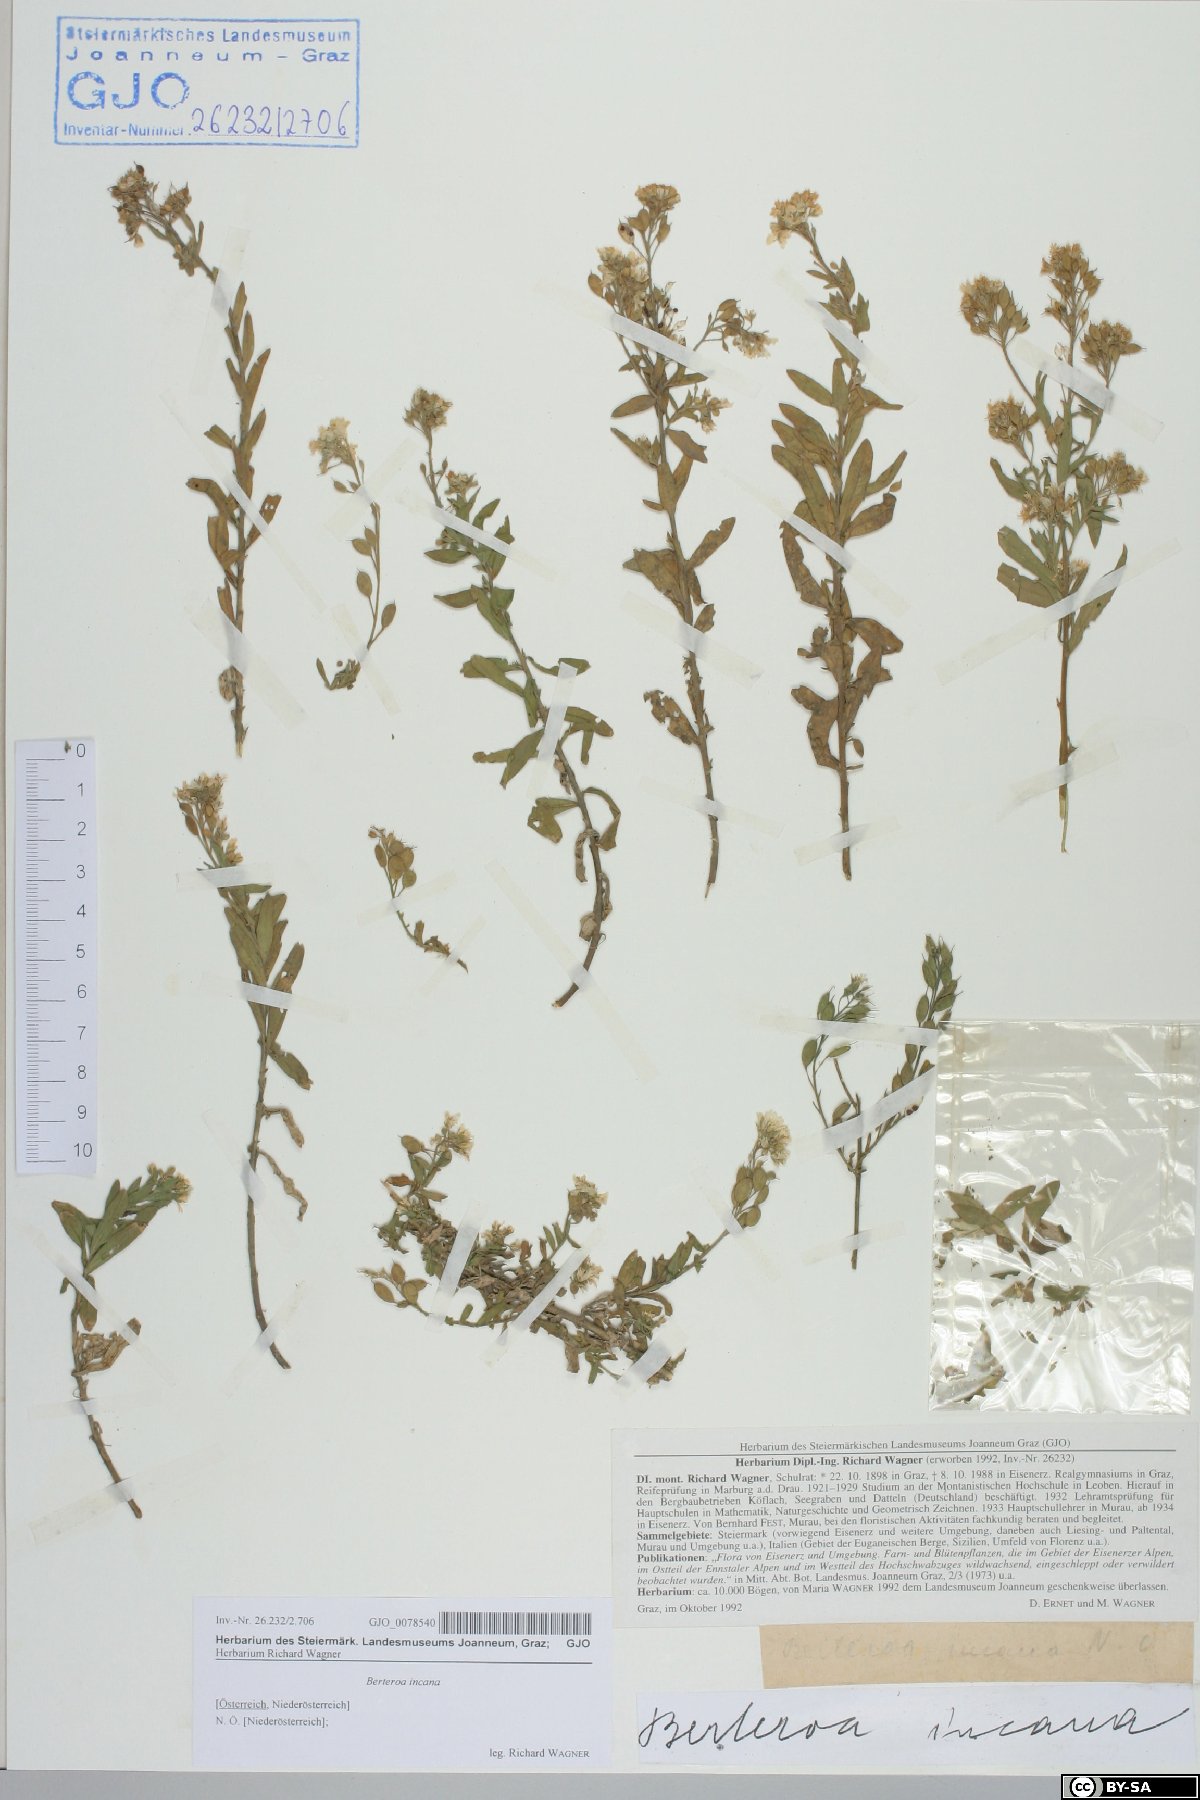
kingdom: Plantae
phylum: Tracheophyta
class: Magnoliopsida
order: Brassicales
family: Brassicaceae
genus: Berteroa
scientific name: Berteroa incana
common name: Hoary alison
